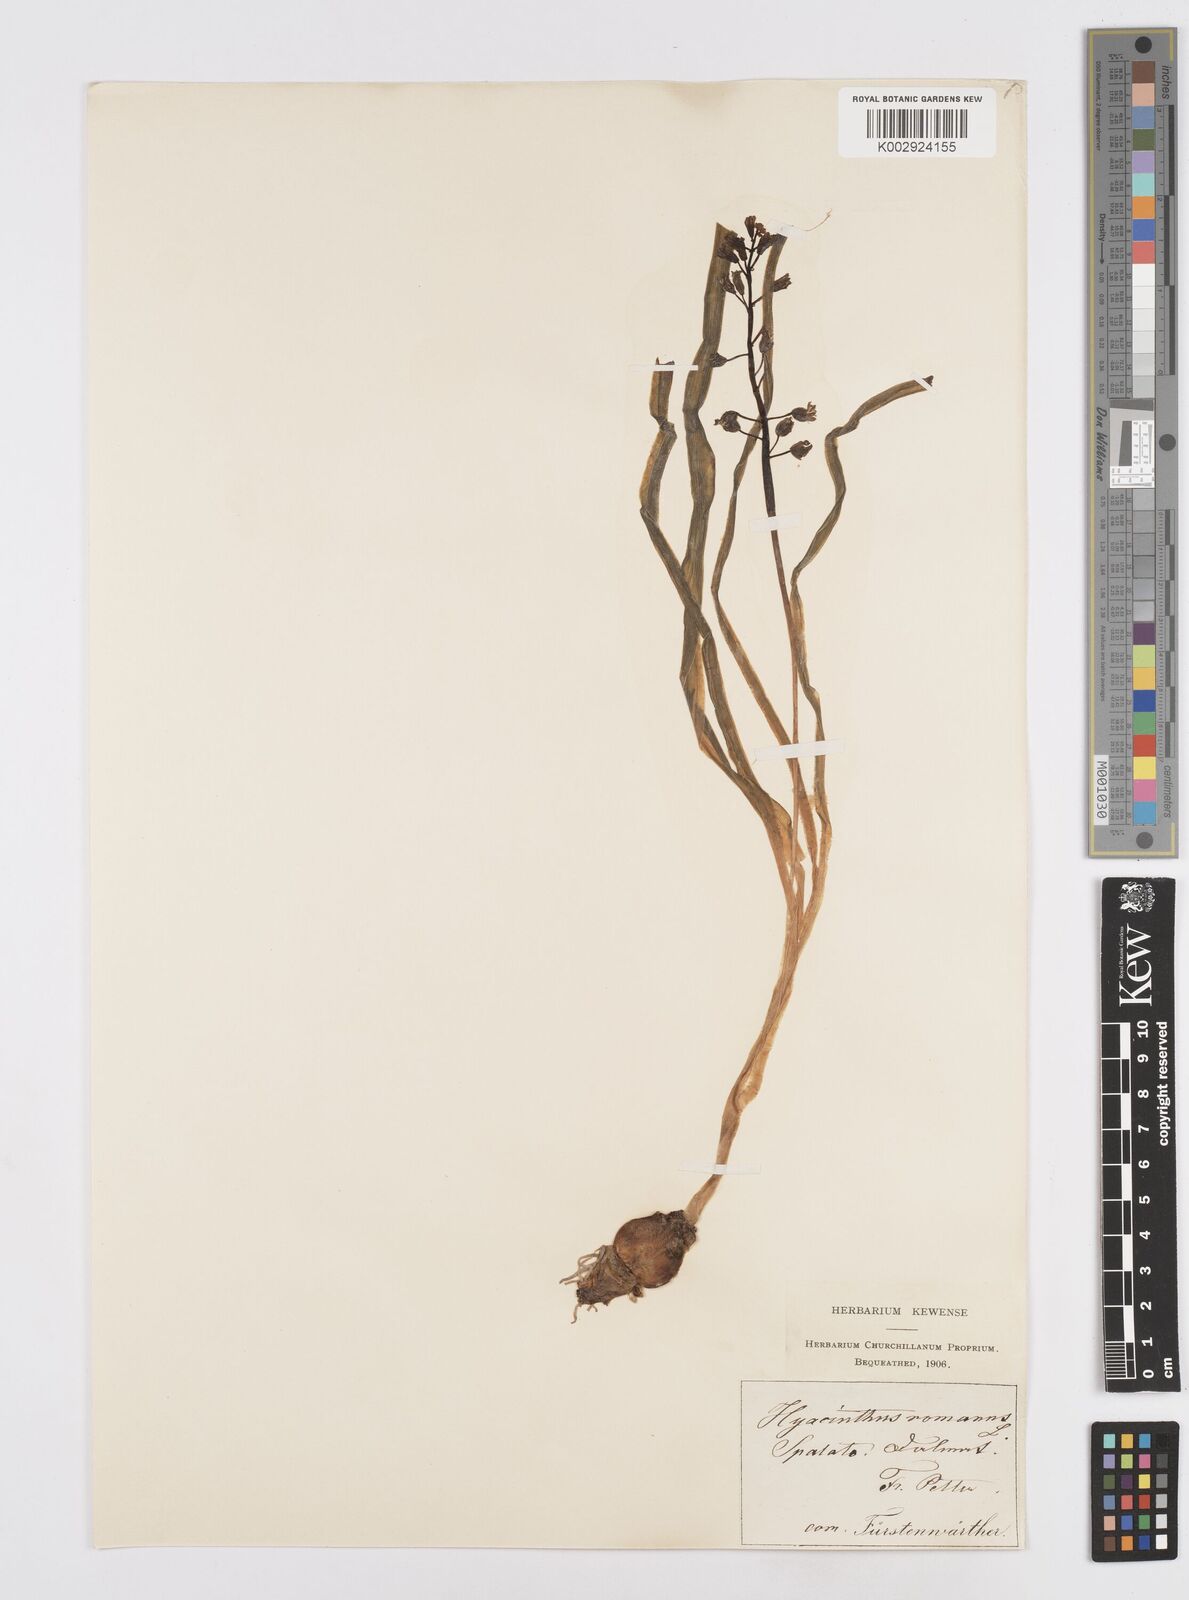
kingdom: Plantae
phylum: Tracheophyta
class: Liliopsida
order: Asparagales
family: Asparagaceae
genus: Bellevalia
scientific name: Bellevalia
